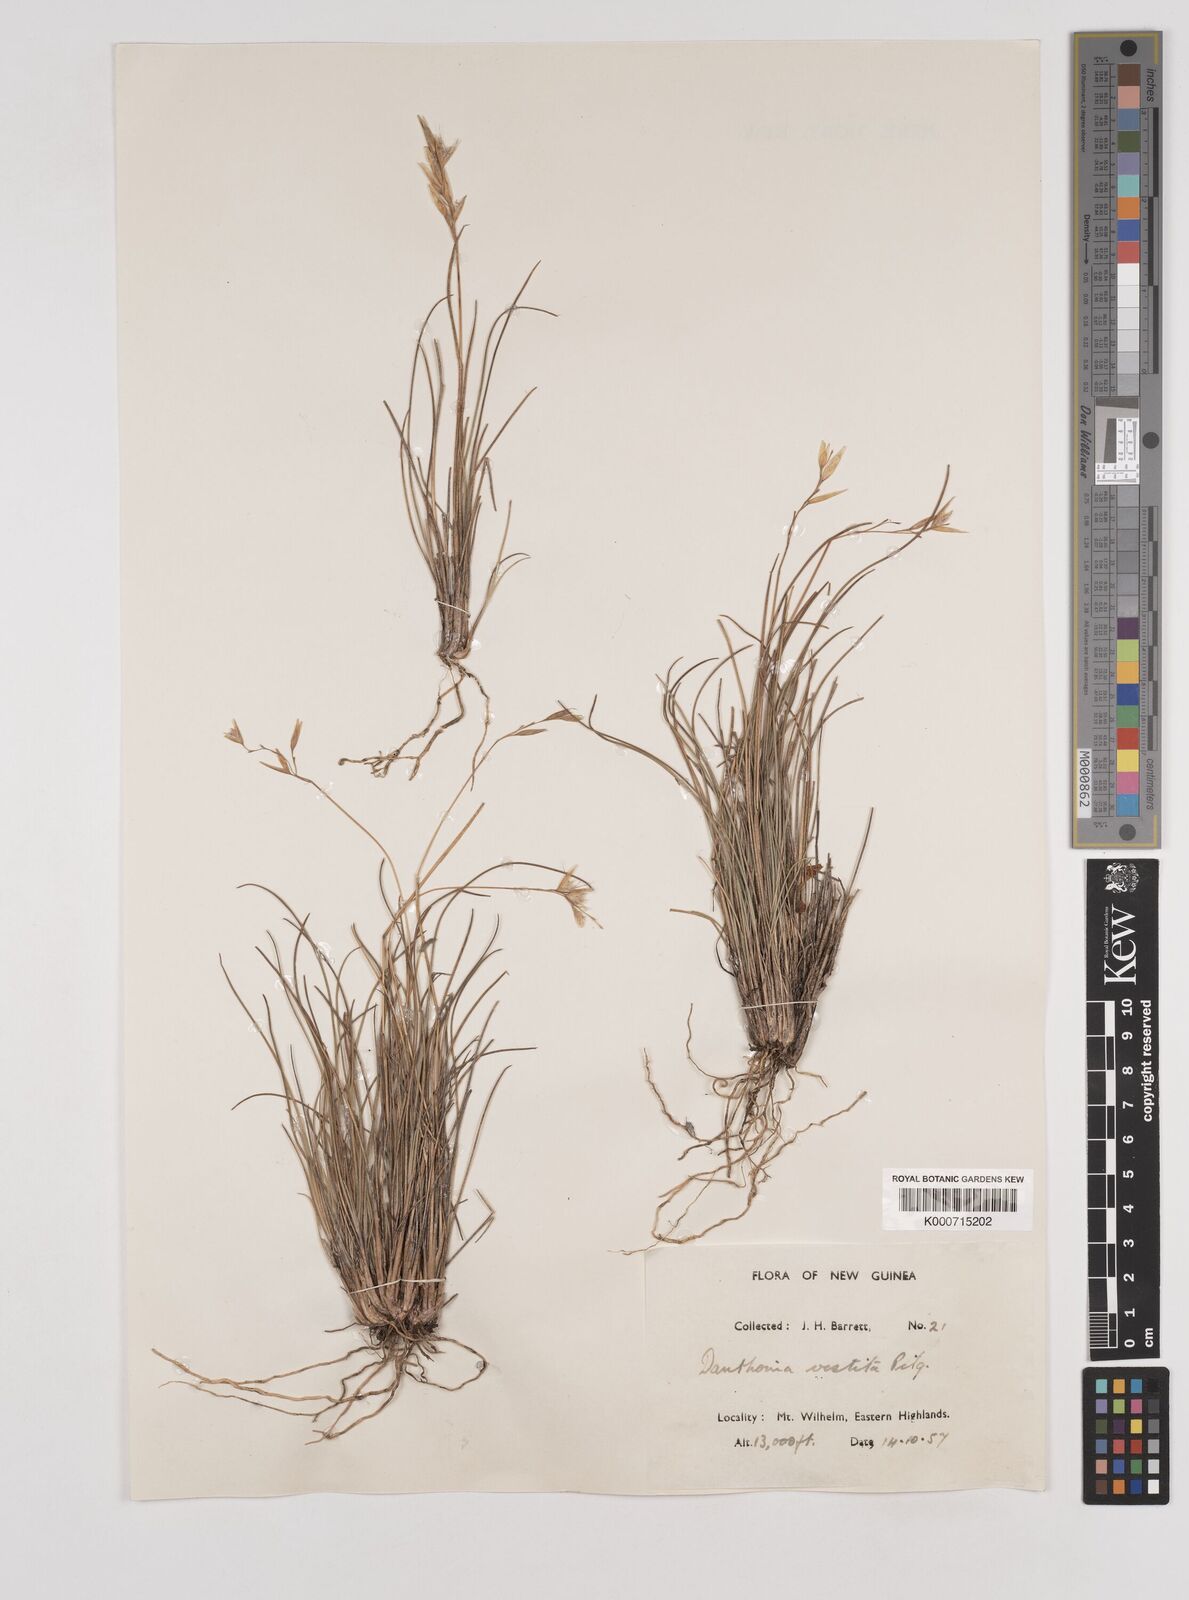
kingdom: Plantae
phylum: Tracheophyta
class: Liliopsida
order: Poales
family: Poaceae
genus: Rytidosperma
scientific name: Rytidosperma vestitum
